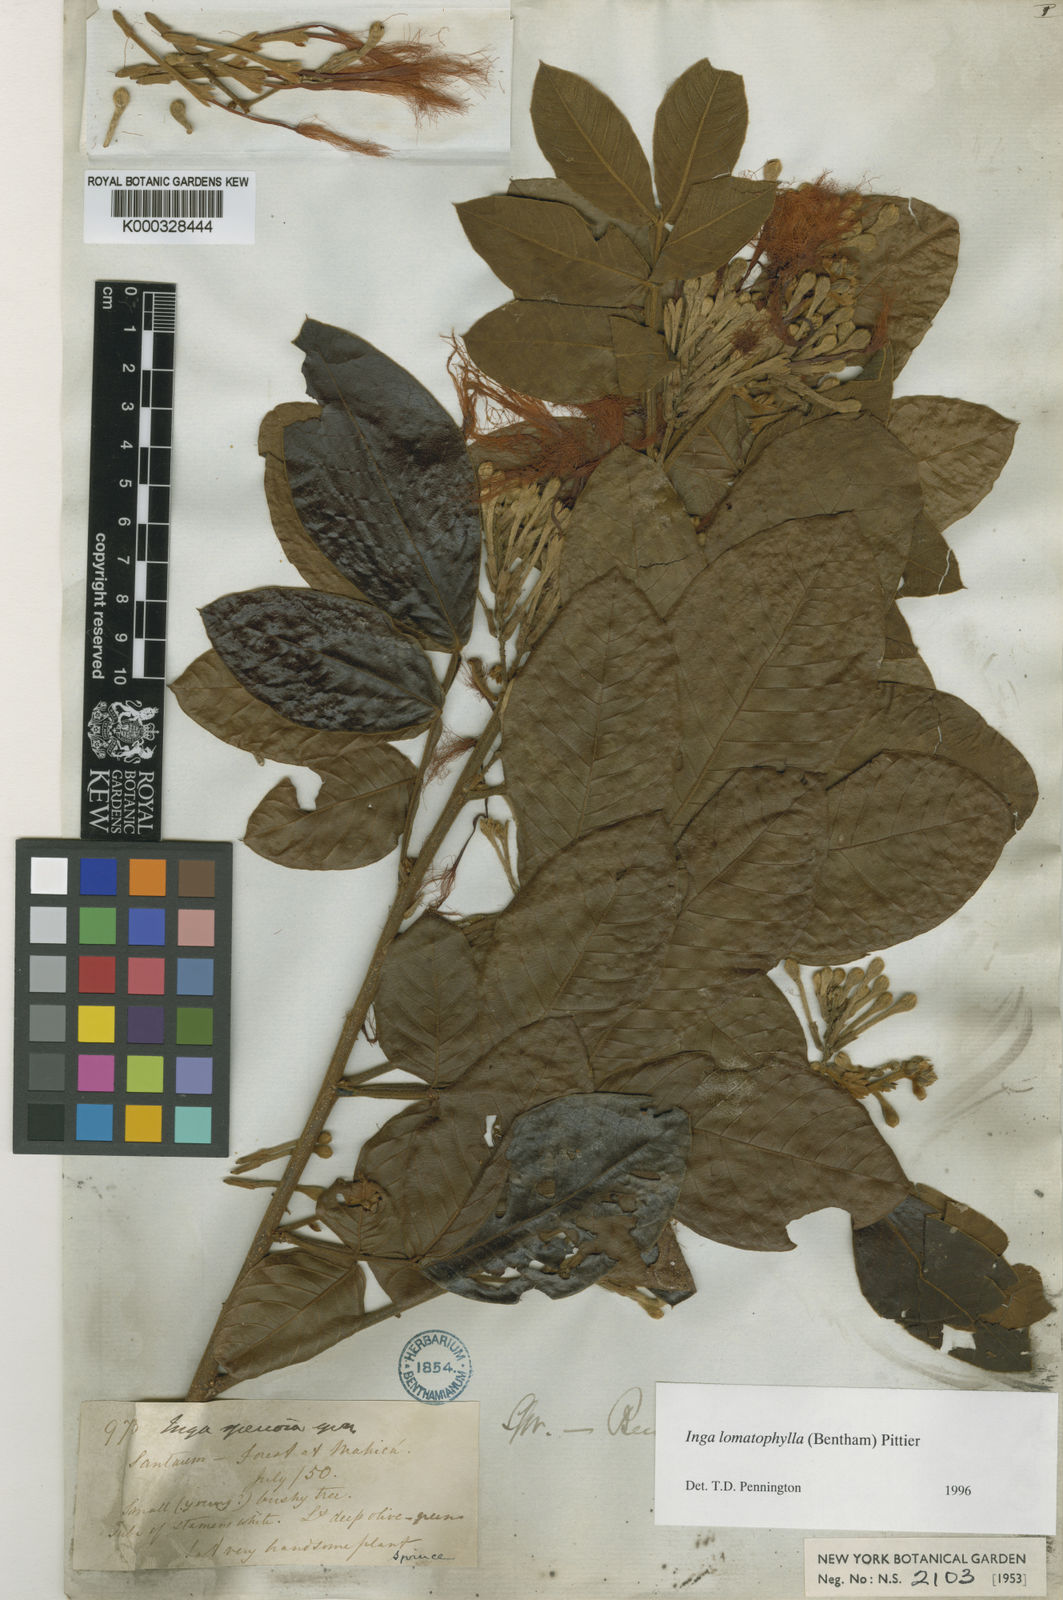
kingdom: Plantae
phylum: Tracheophyta
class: Magnoliopsida
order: Fabales
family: Fabaceae
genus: Inga
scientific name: Inga lomatophylla
